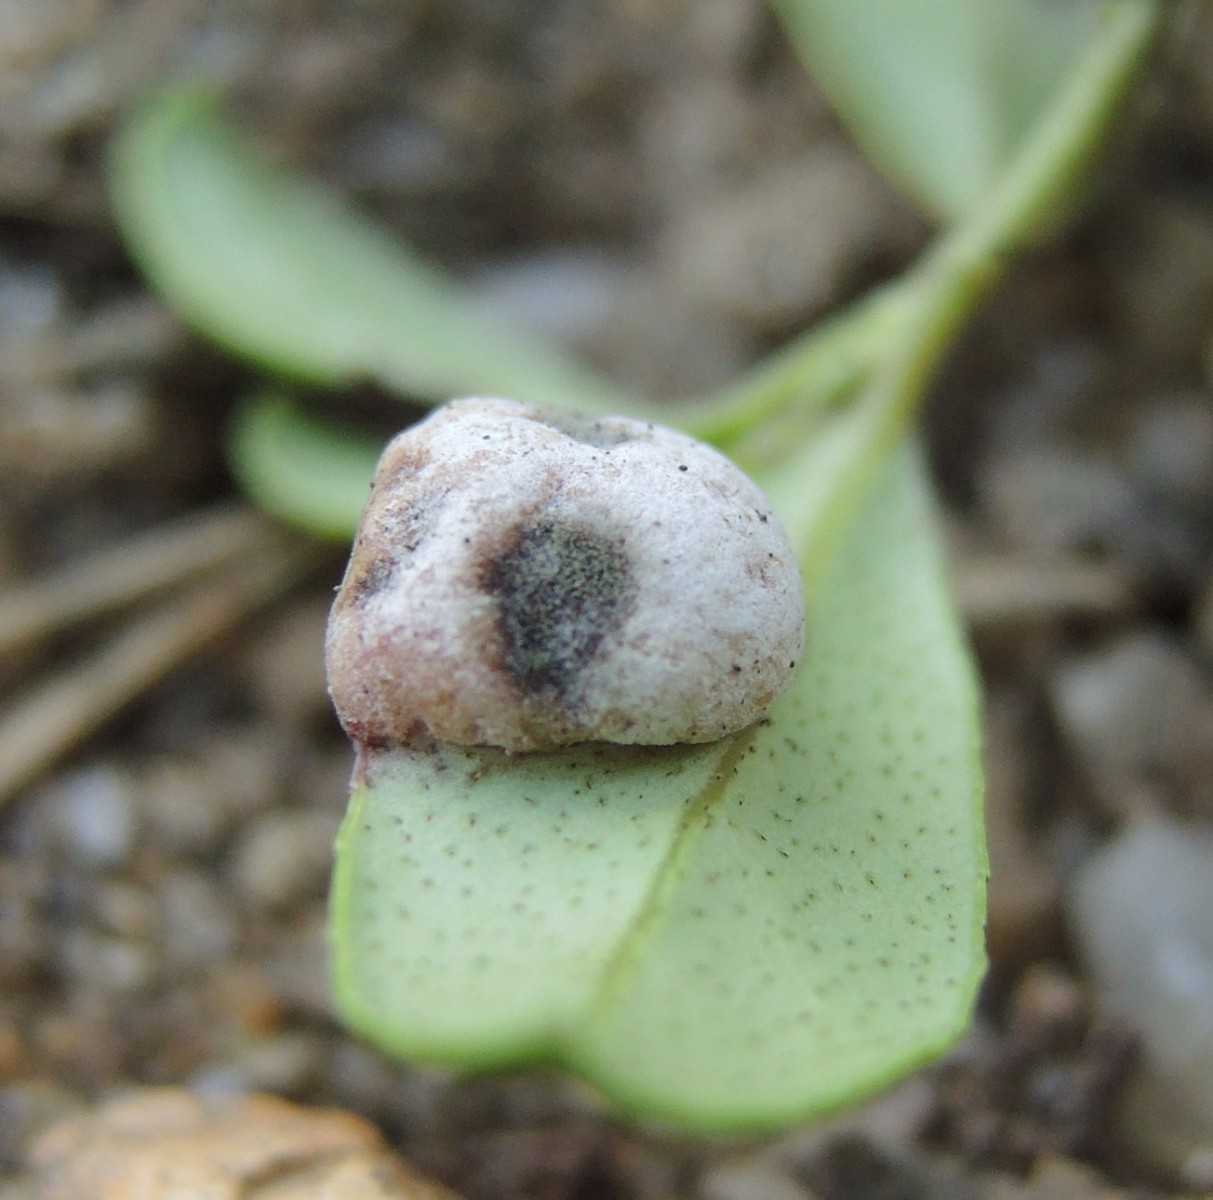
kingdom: Fungi
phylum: Basidiomycota
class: Exobasidiomycetes
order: Exobasidiales
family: Exobasidiaceae
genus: Exobasidium
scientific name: Exobasidium vaccinii
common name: tyttebærblad-bøllesvamp
